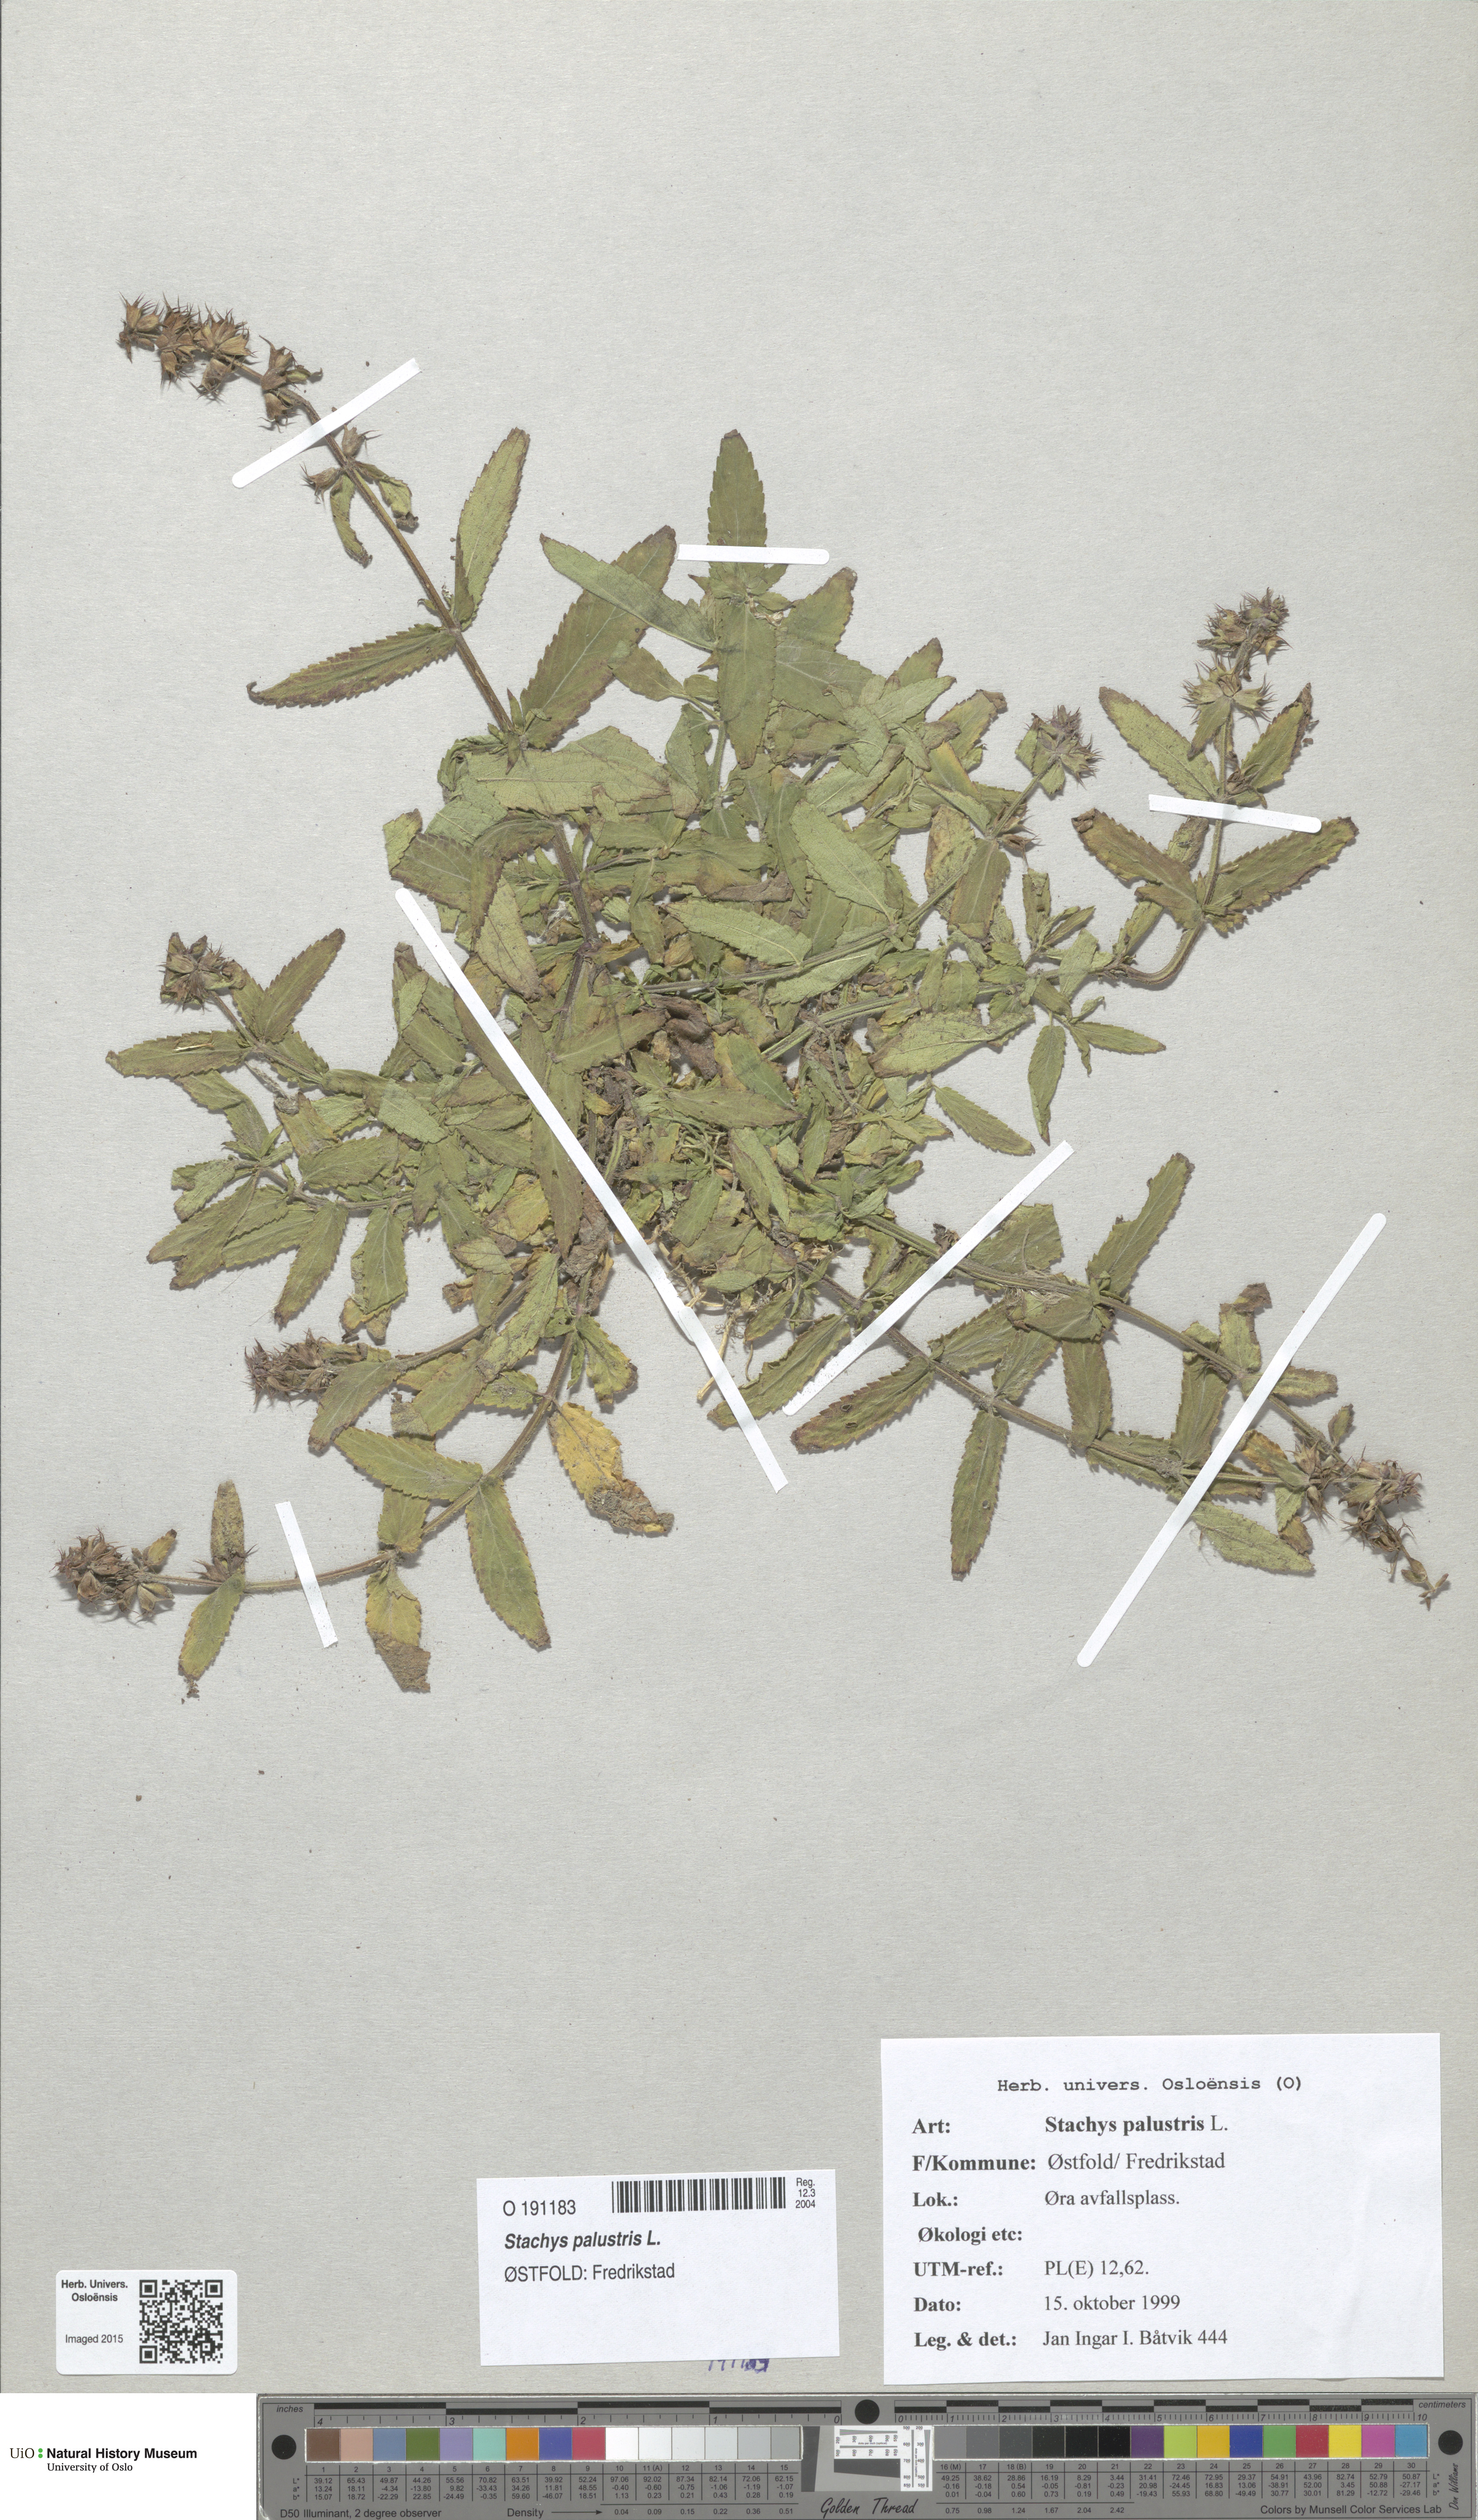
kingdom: Plantae
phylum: Tracheophyta
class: Magnoliopsida
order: Lamiales
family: Lamiaceae
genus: Stachys
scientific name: Stachys palustris
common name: Marsh woundwort
